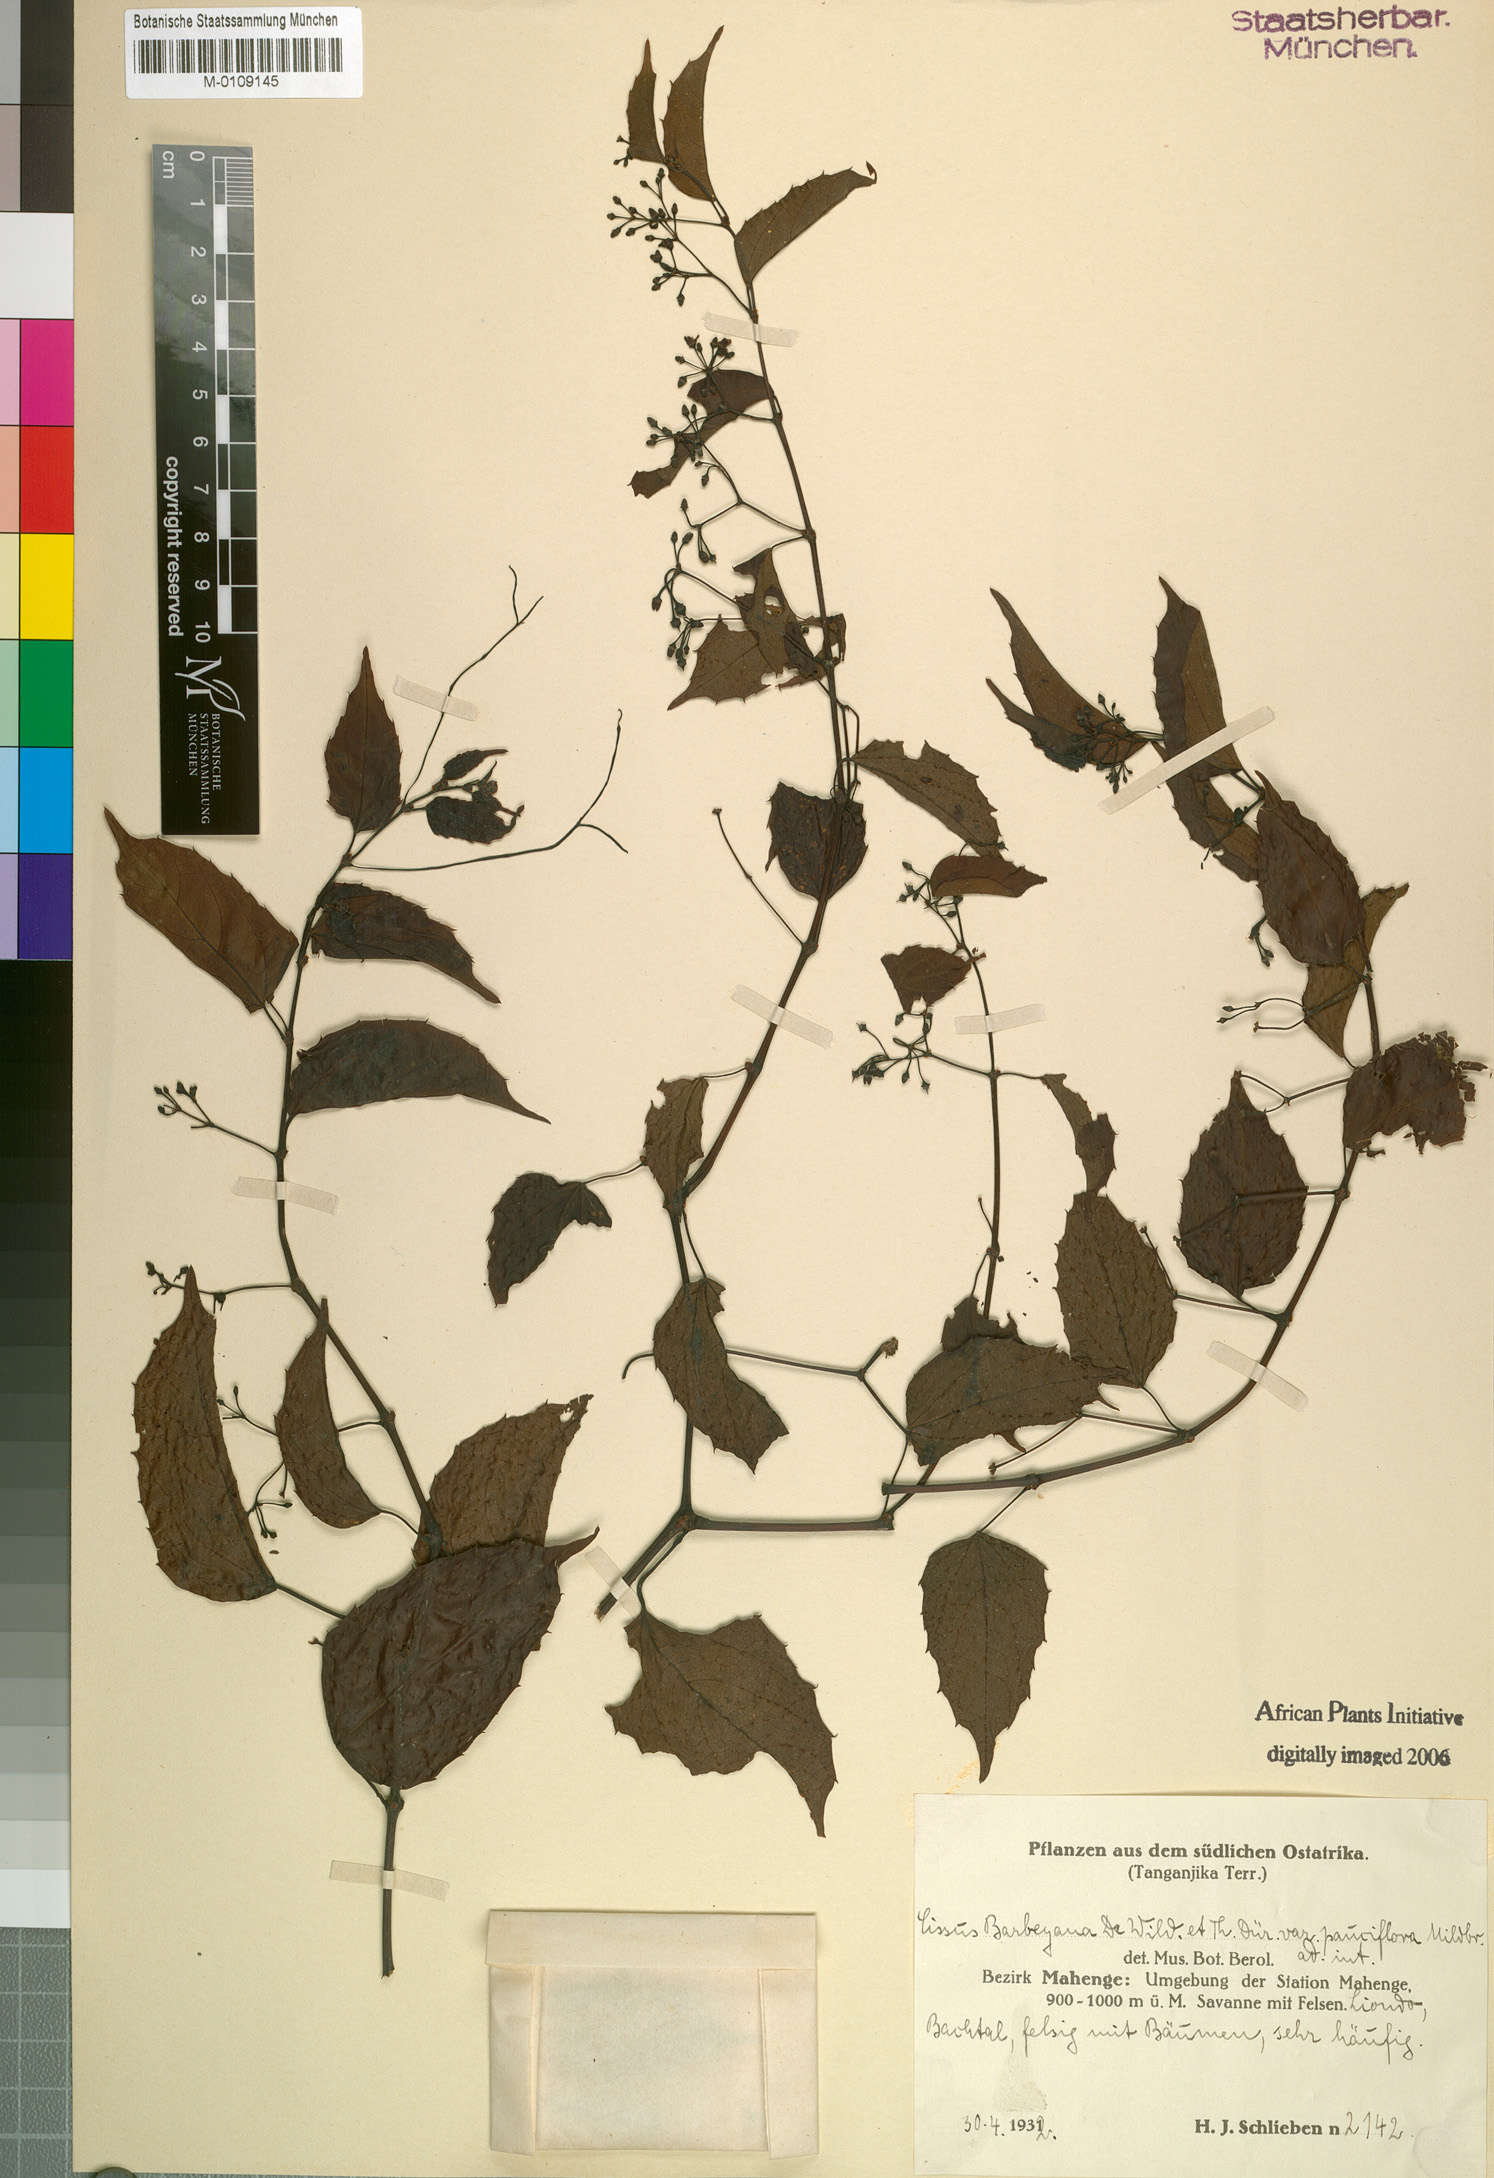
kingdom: Plantae
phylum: Tracheophyta
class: Magnoliopsida
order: Vitales
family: Vitaceae
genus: Cissus
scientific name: Cissus barbeyana
